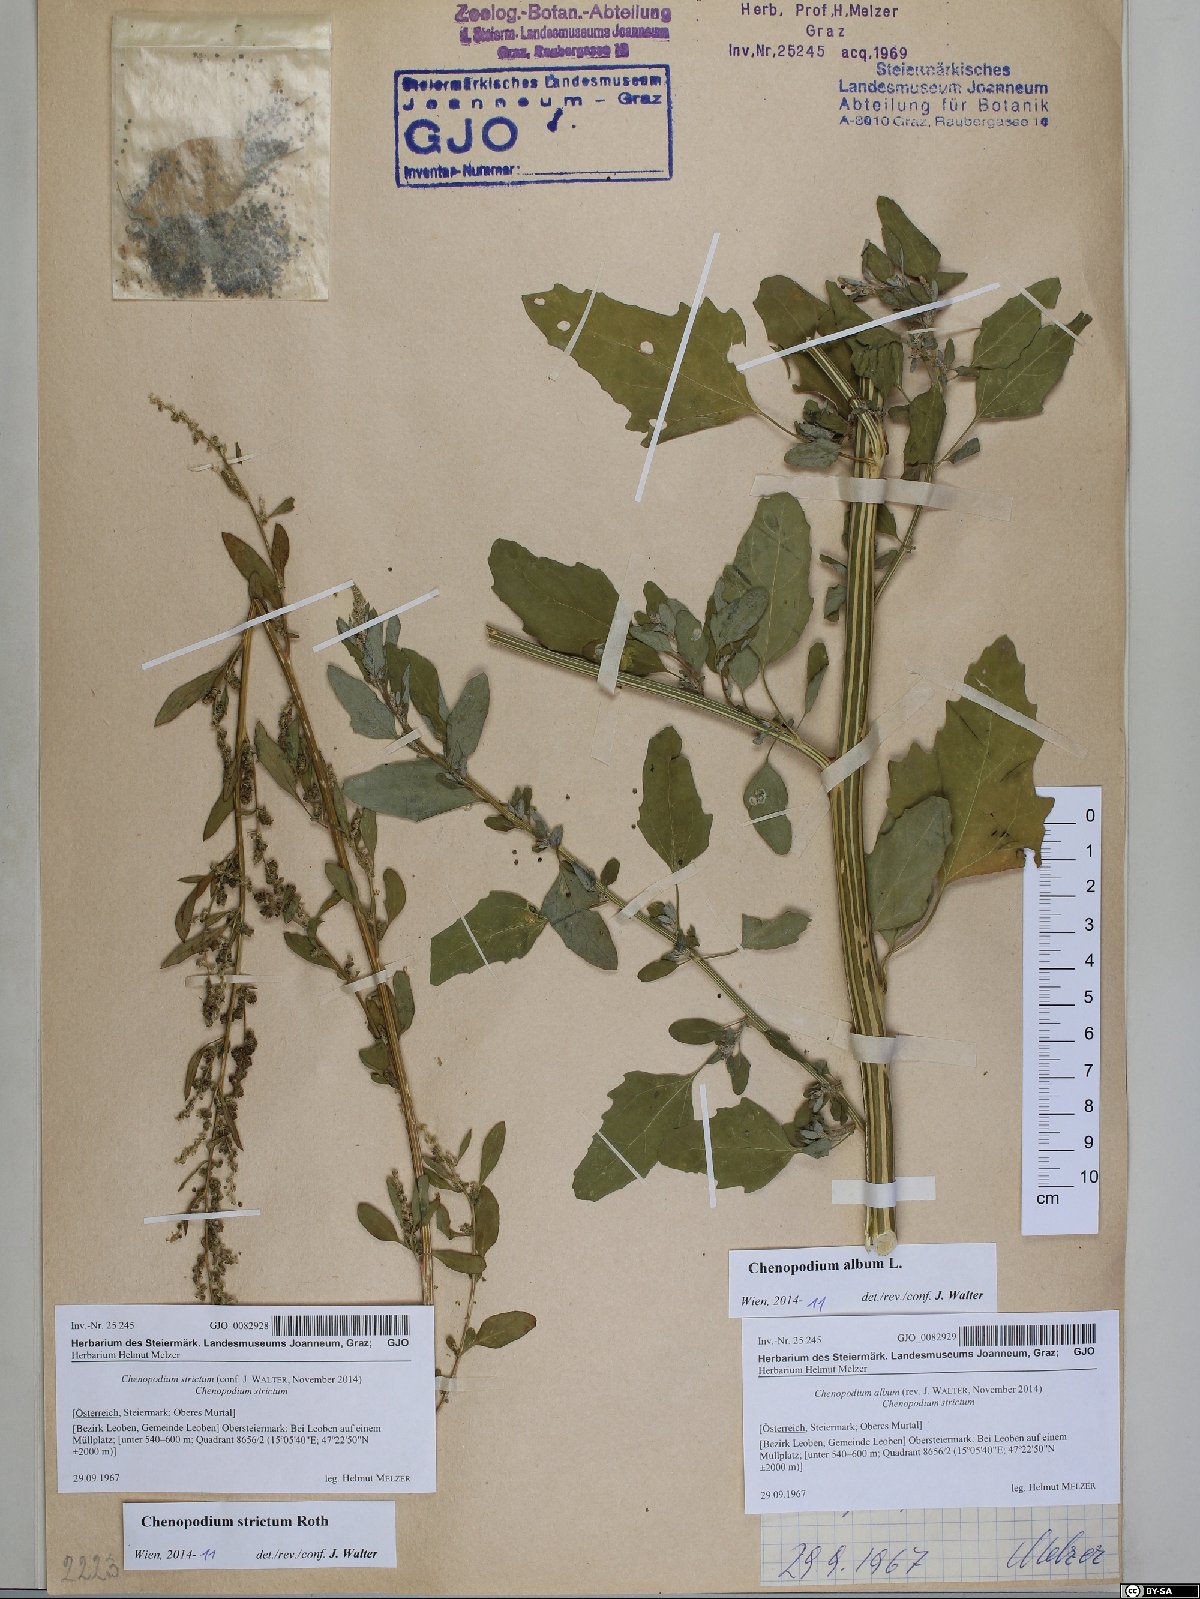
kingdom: Plantae
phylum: Tracheophyta
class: Magnoliopsida
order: Caryophyllales
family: Amaranthaceae
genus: Chenopodium
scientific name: Chenopodium album
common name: Fat-hen
